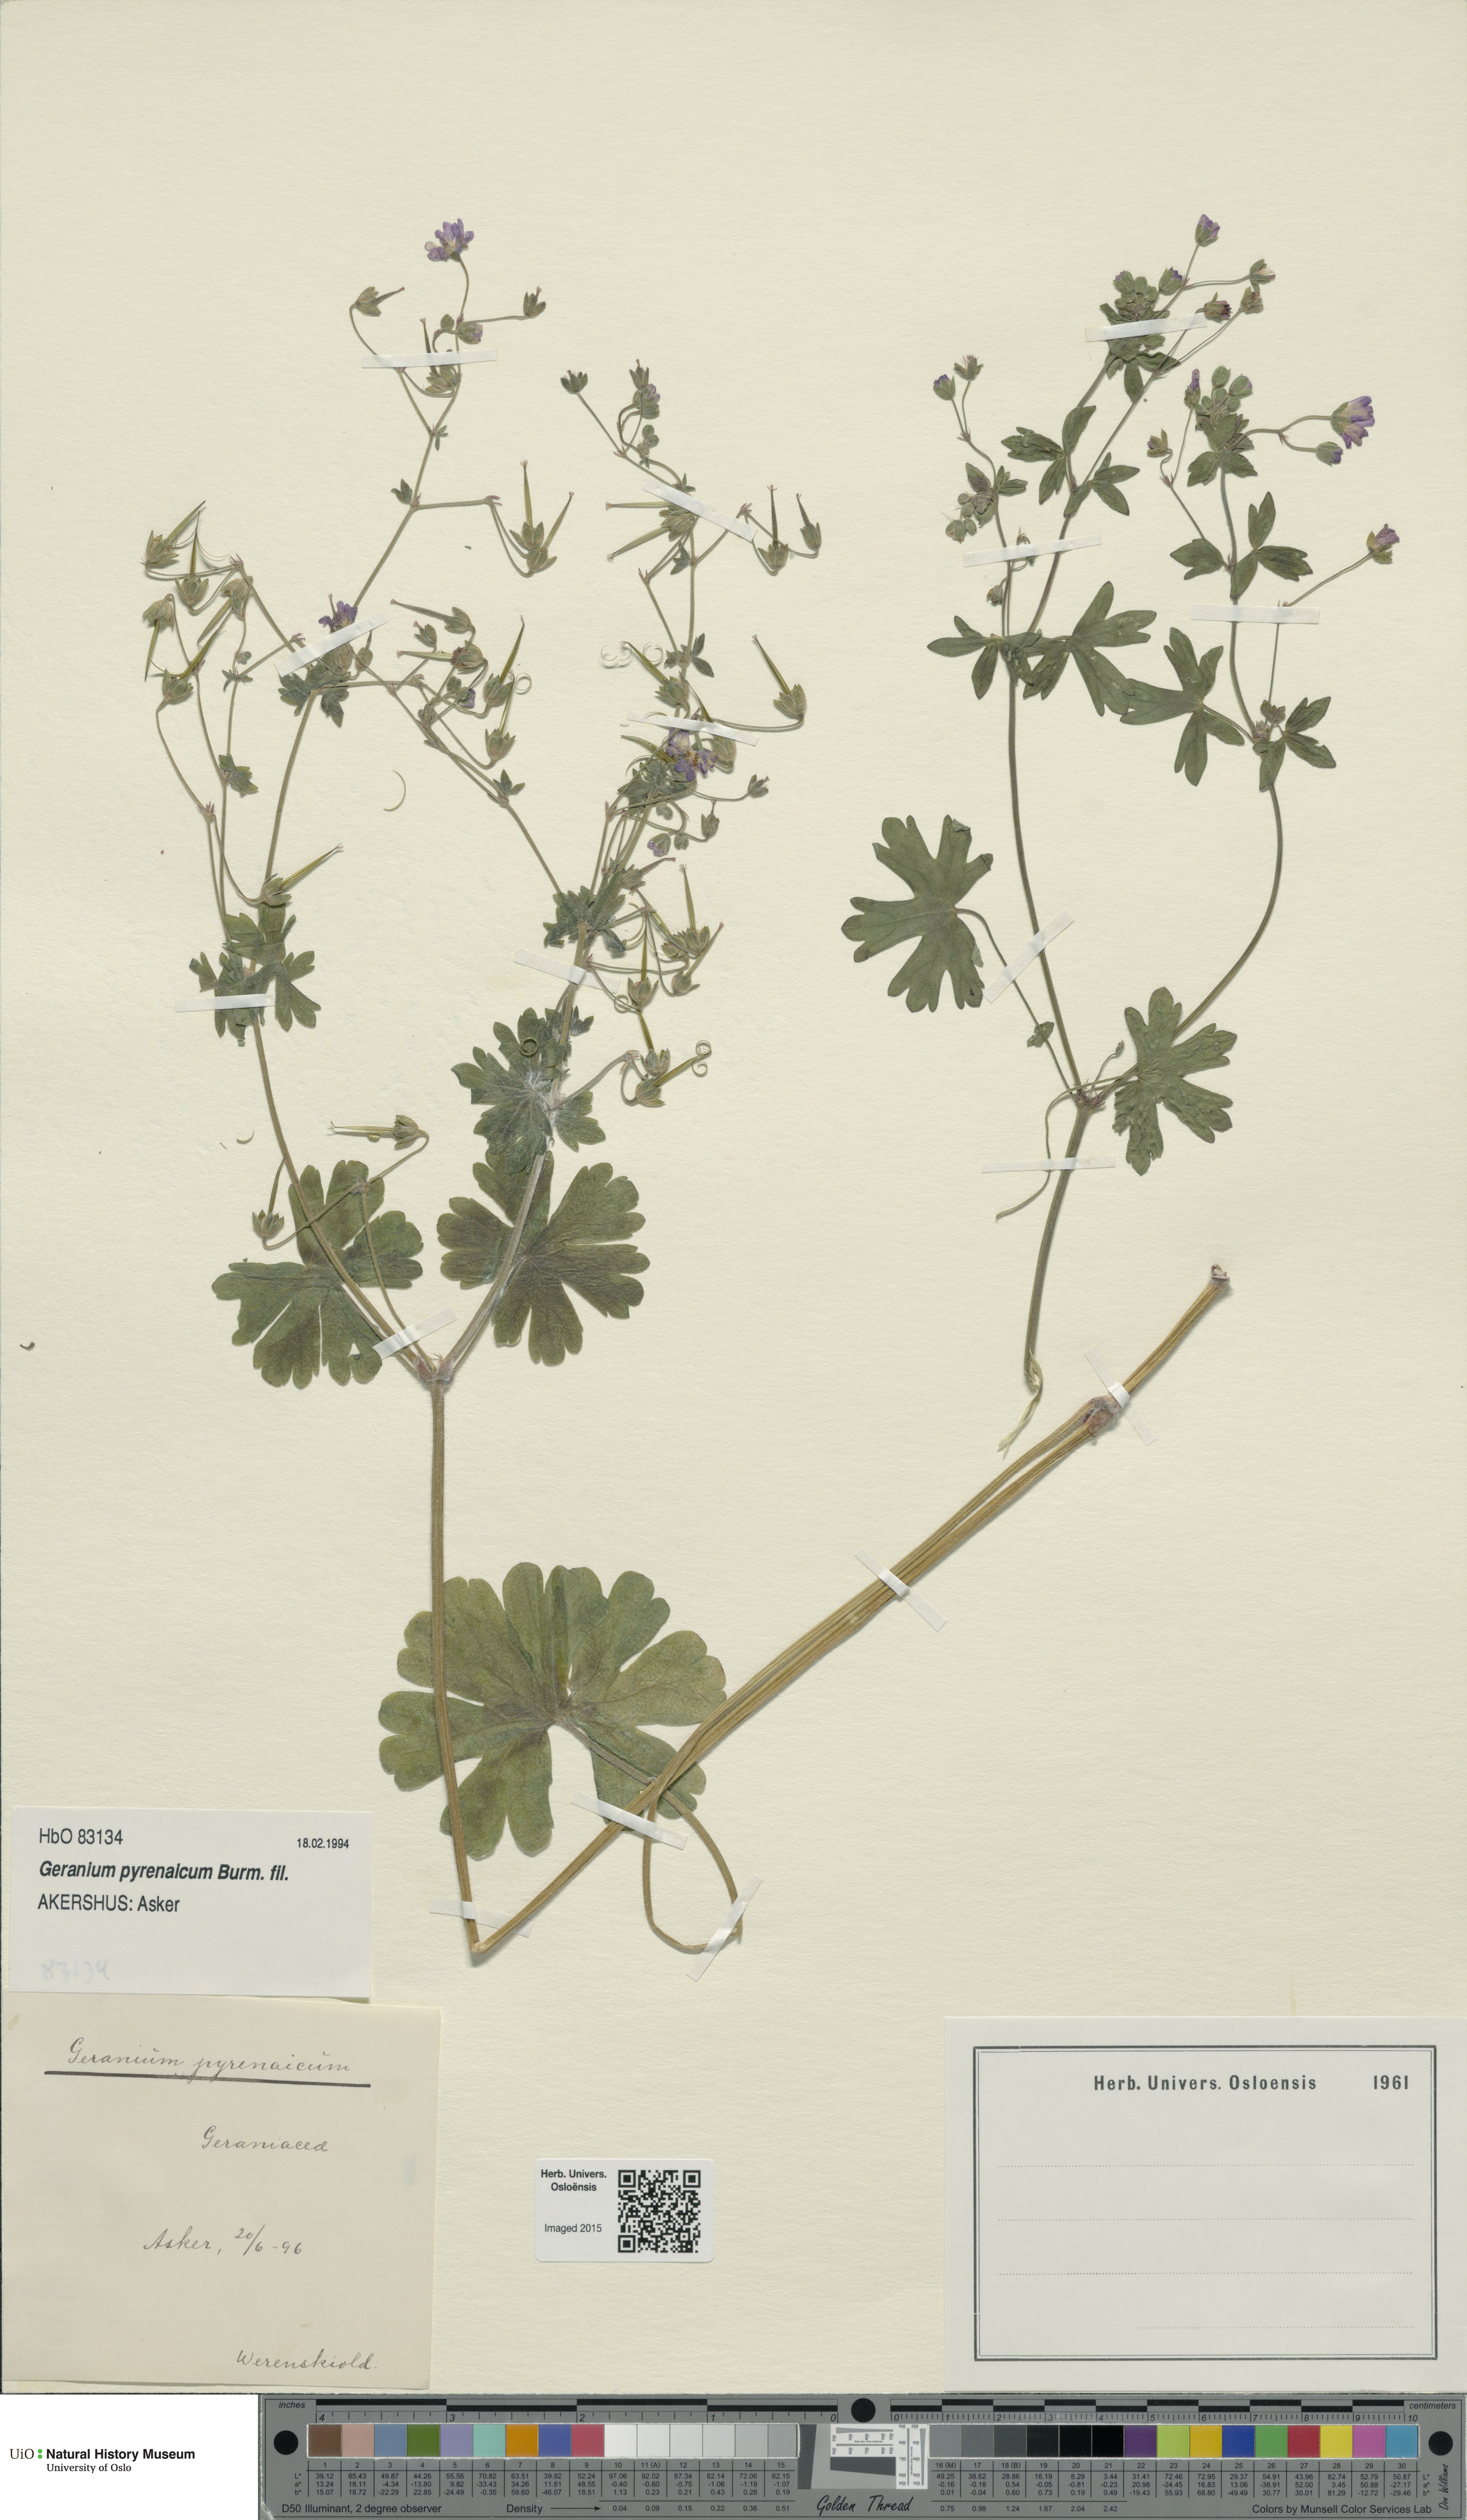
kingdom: Plantae
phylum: Tracheophyta
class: Magnoliopsida
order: Geraniales
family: Geraniaceae
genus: Geranium
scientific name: Geranium pyrenaicum
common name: Hedgerow crane's-bill
